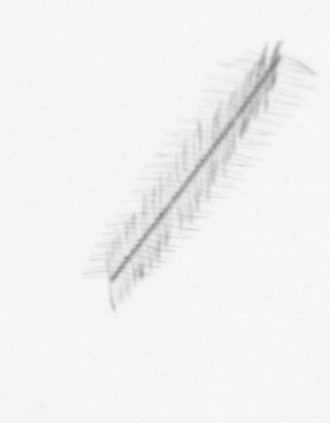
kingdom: Chromista
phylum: Ochrophyta
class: Bacillariophyceae
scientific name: Bacillariophyceae
